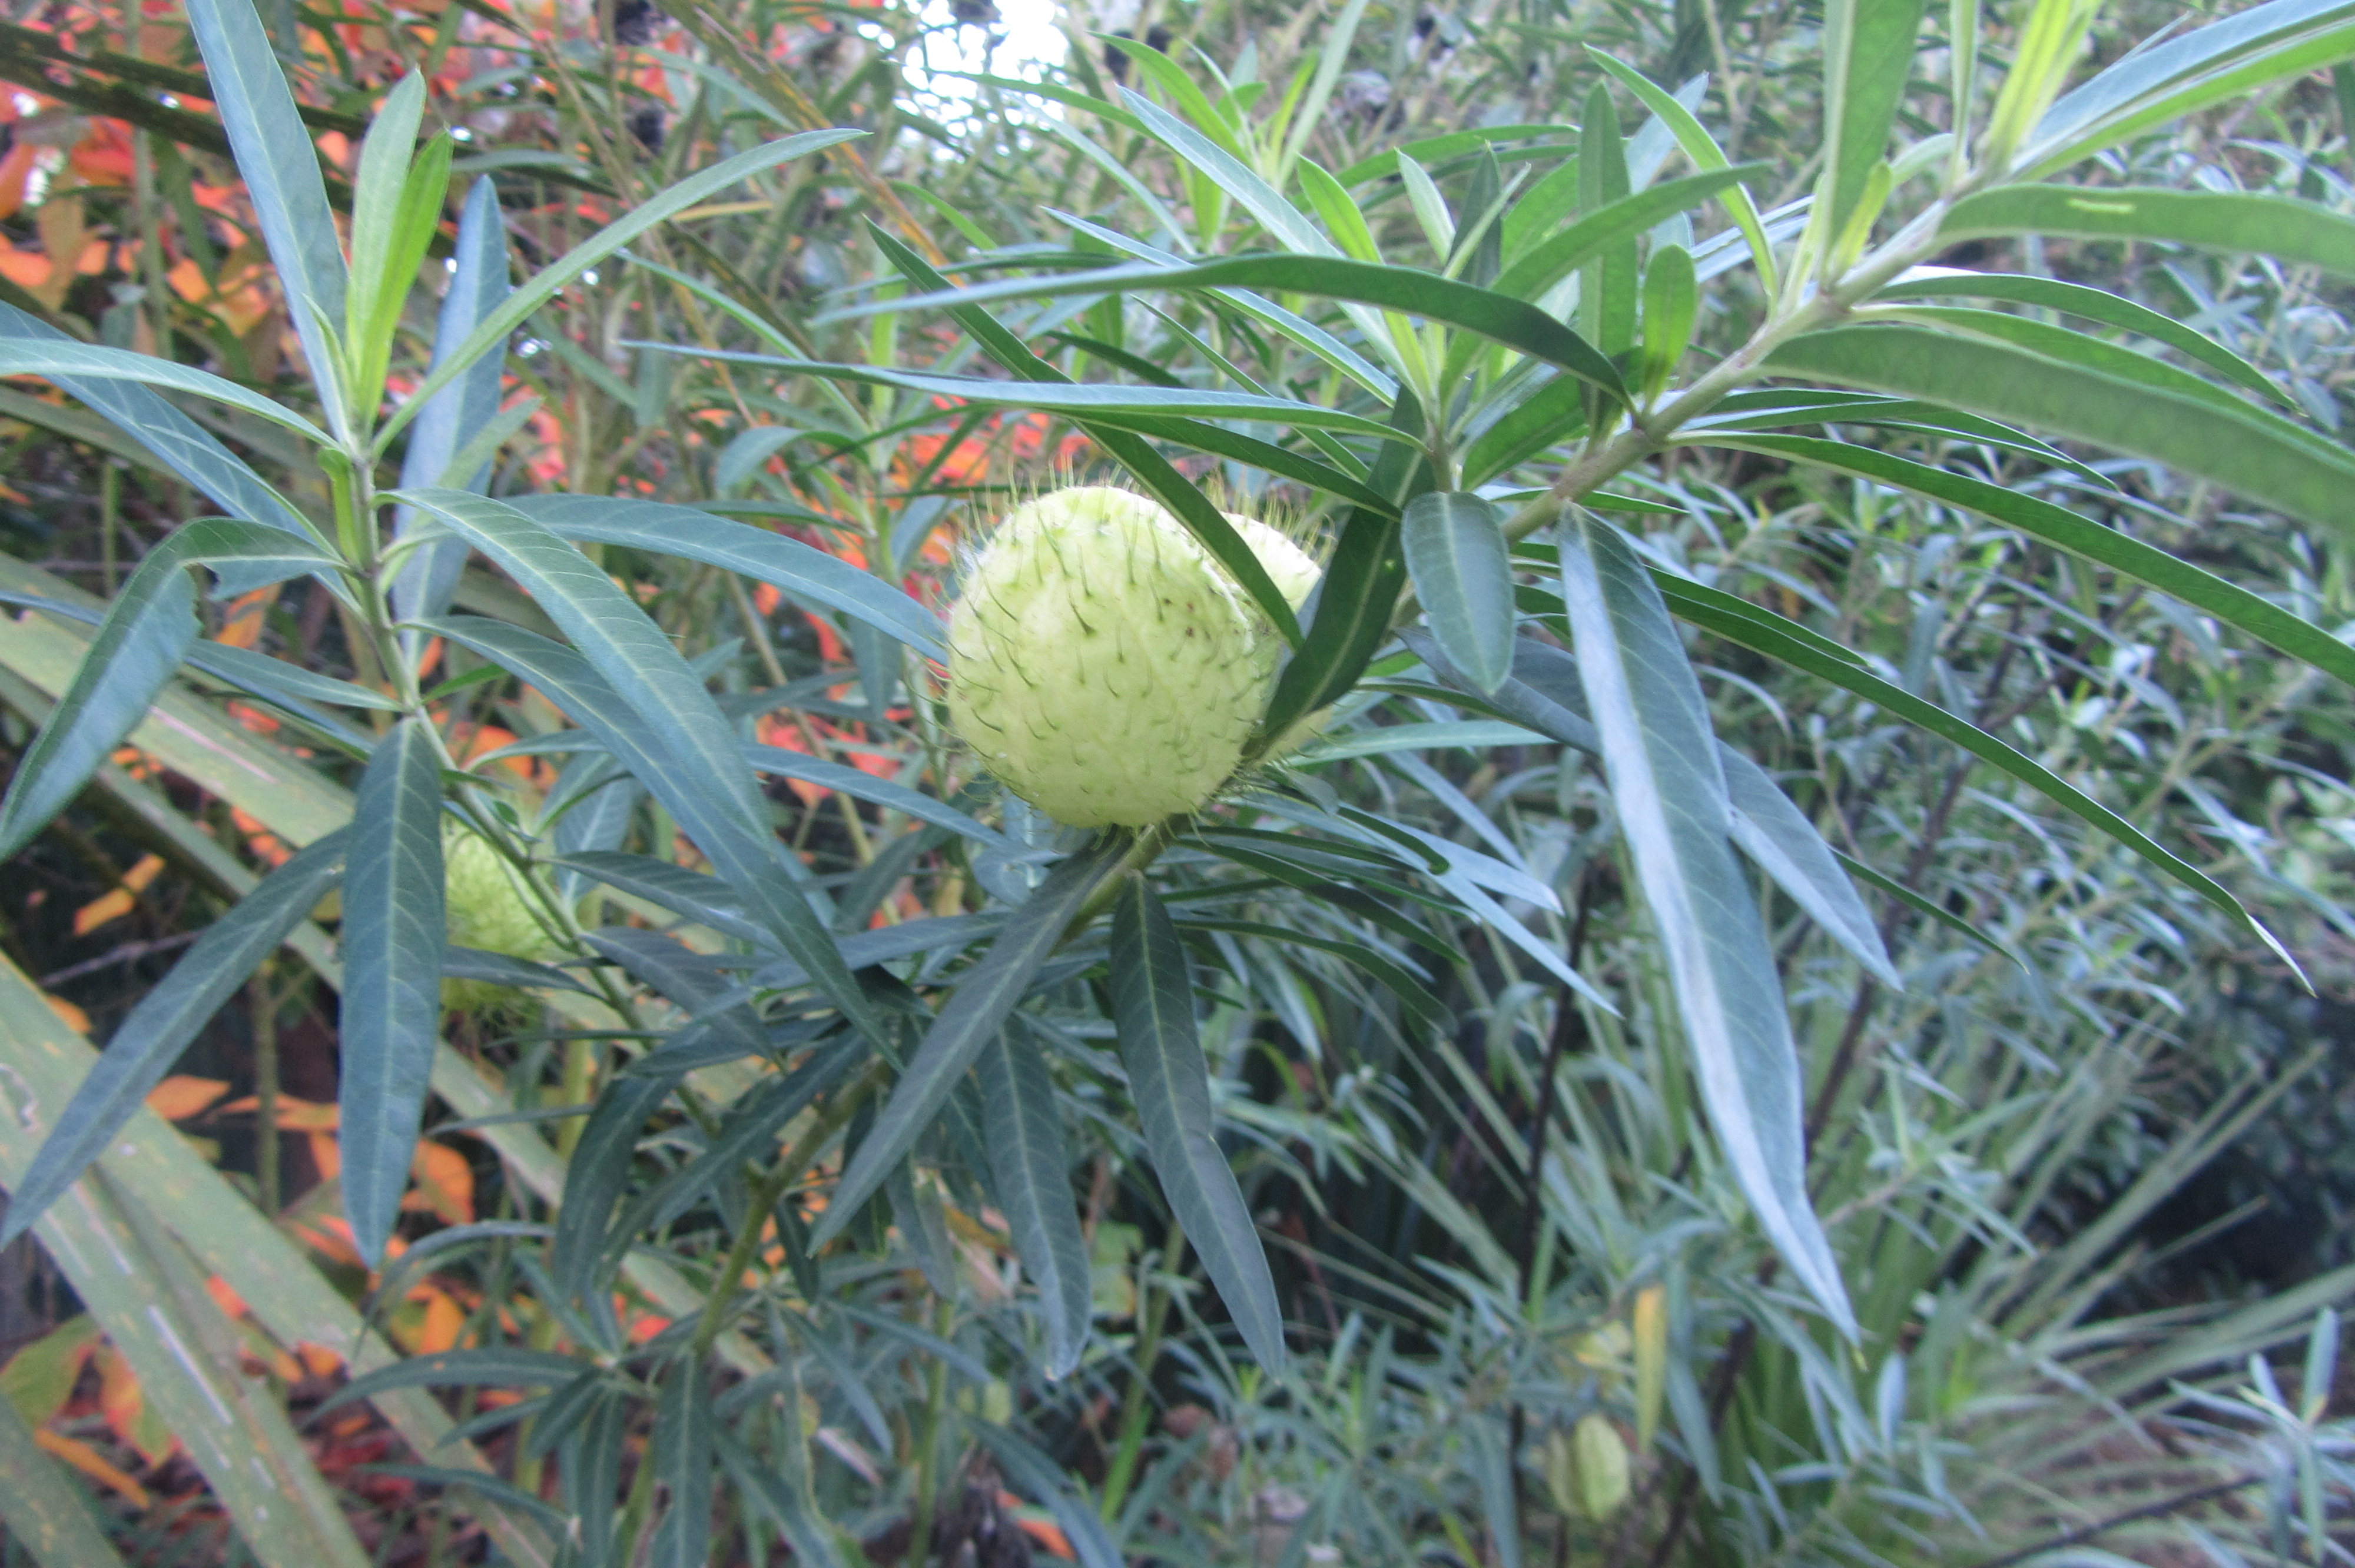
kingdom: Plantae
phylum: Tracheophyta
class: Magnoliopsida
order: Gentianales
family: Apocynaceae
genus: Gomphocarpus
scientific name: Gomphocarpus physocarpus
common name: Balloon cotton bush
